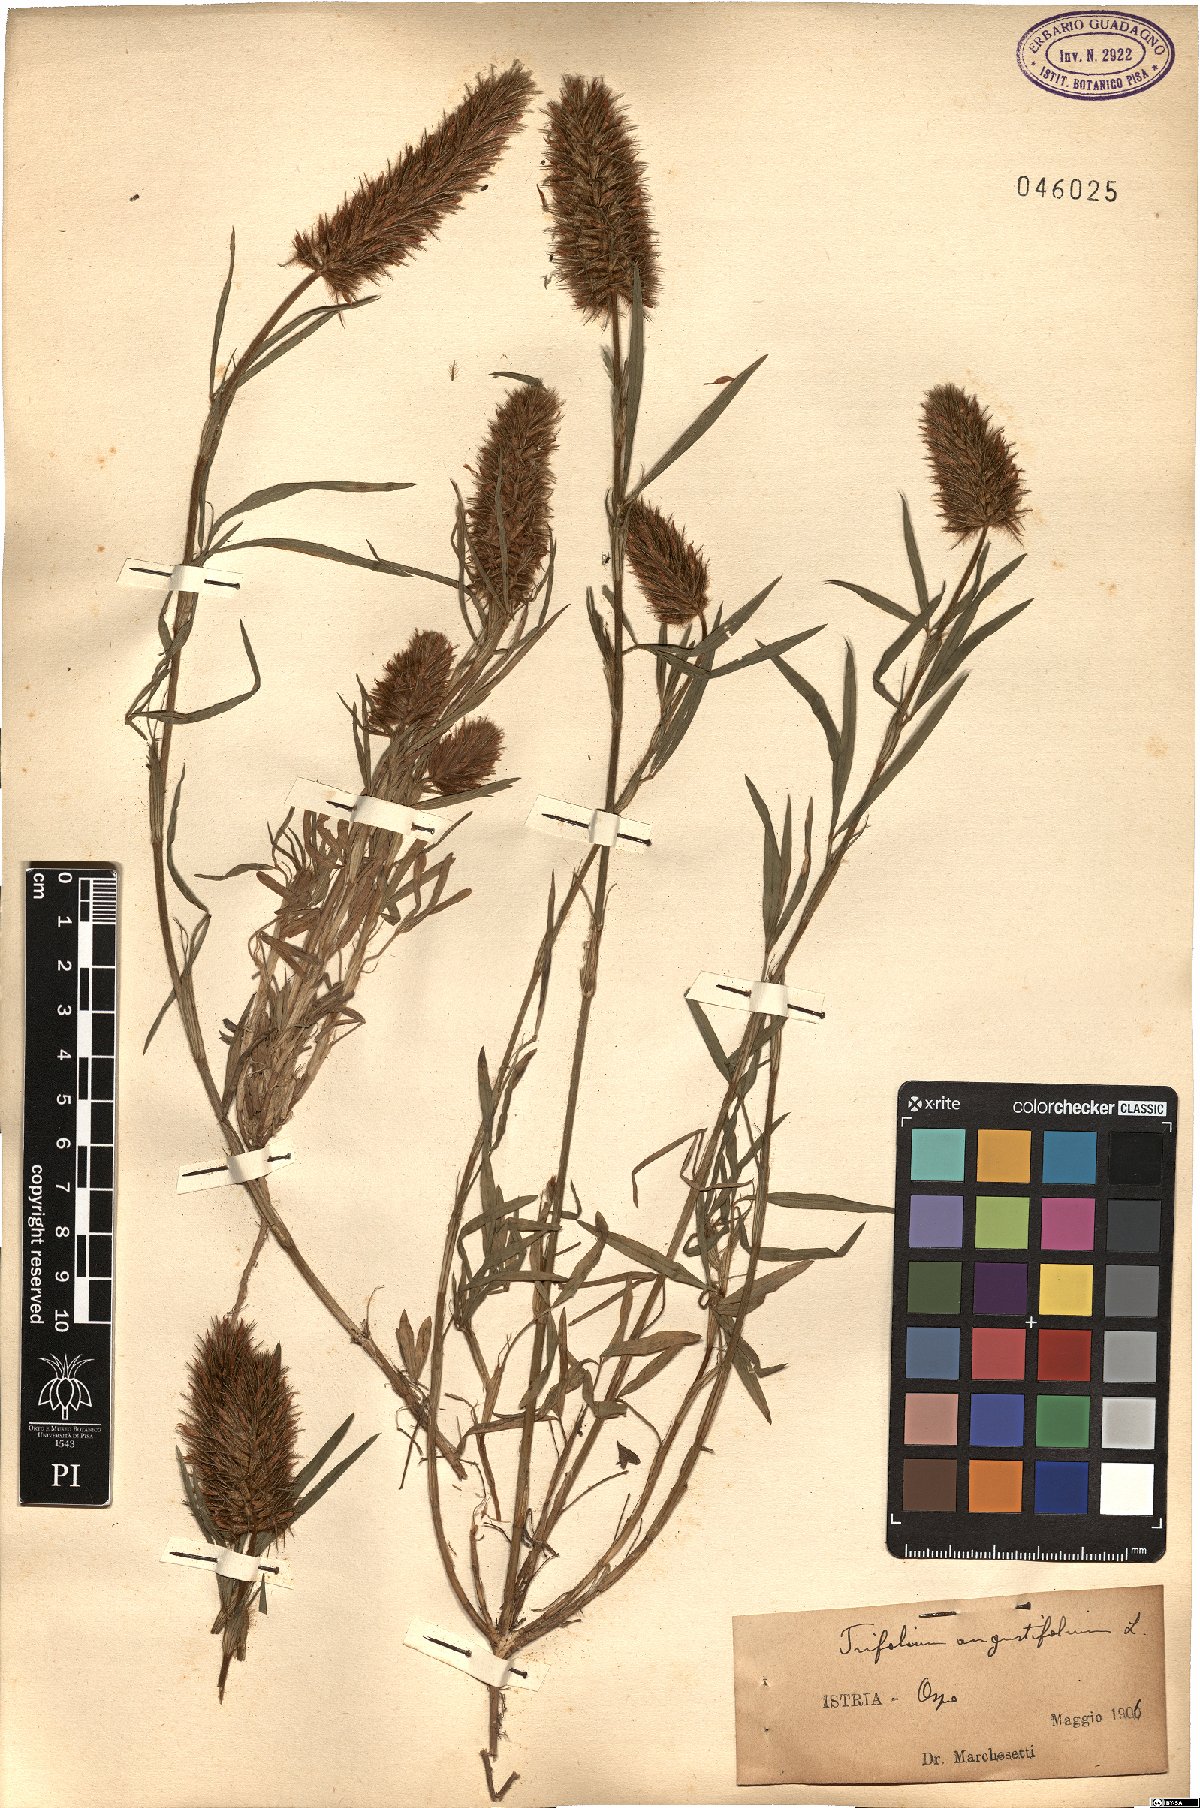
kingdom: Plantae
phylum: Tracheophyta
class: Magnoliopsida
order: Fabales
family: Fabaceae
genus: Trifolium
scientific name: Trifolium angustifolium
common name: Narrow clover
